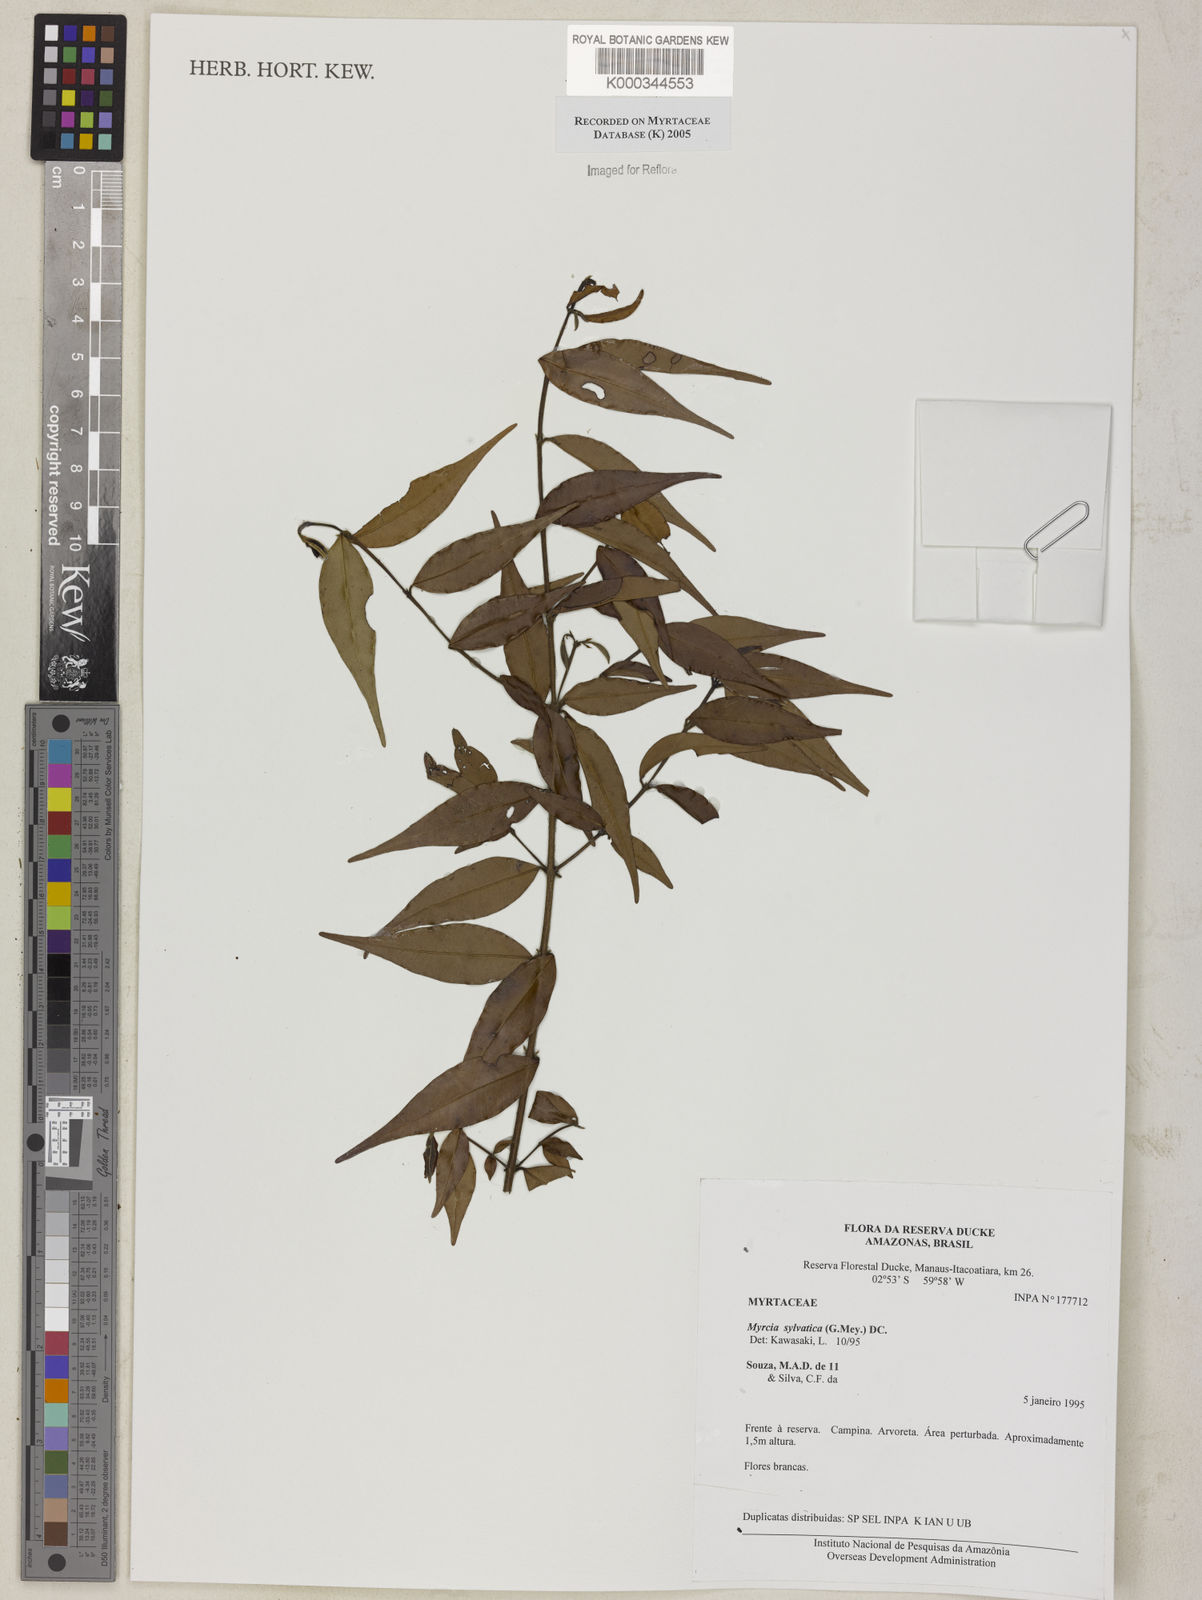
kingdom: Plantae
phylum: Tracheophyta
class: Magnoliopsida
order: Myrtales
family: Myrtaceae
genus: Myrcia
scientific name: Myrcia sylvatica
